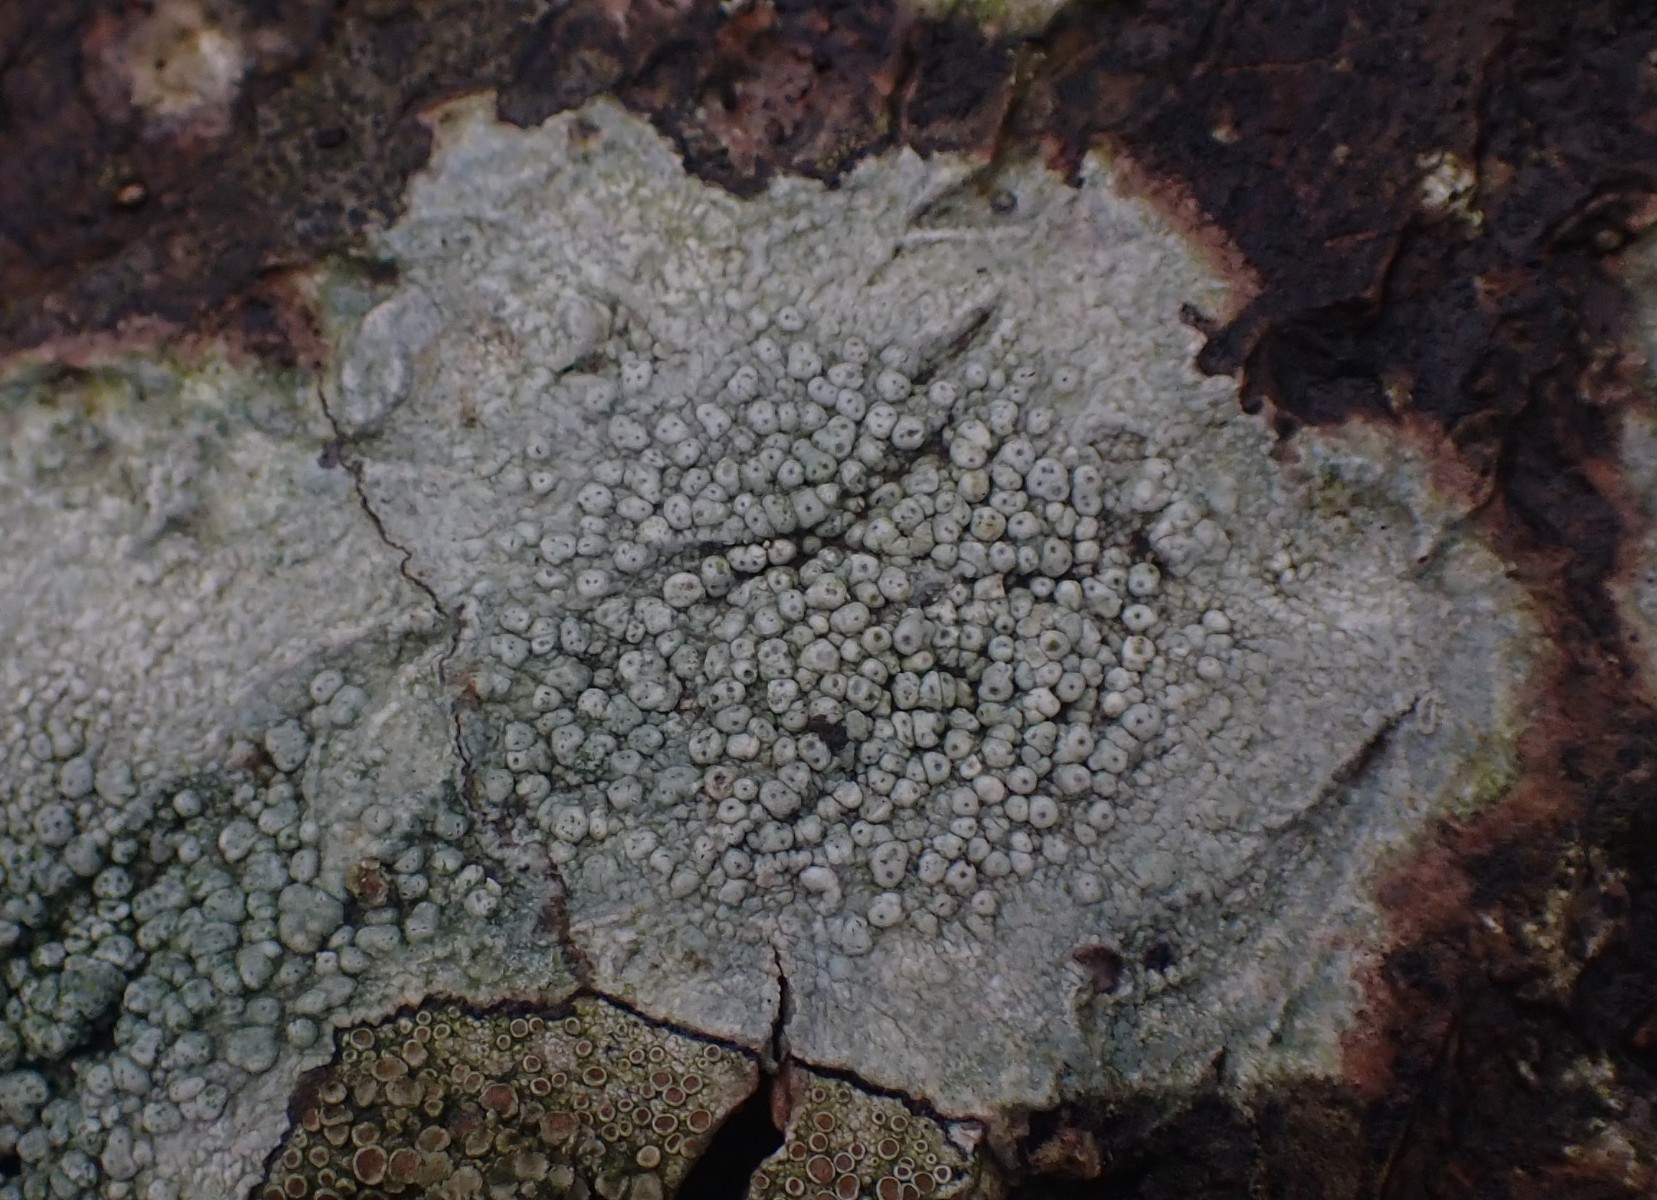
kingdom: Fungi
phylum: Ascomycota
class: Lecanoromycetes
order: Pertusariales
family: Pertusariaceae
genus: Pertusaria
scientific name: Pertusaria pertusa
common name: almindelig prikvortelav
